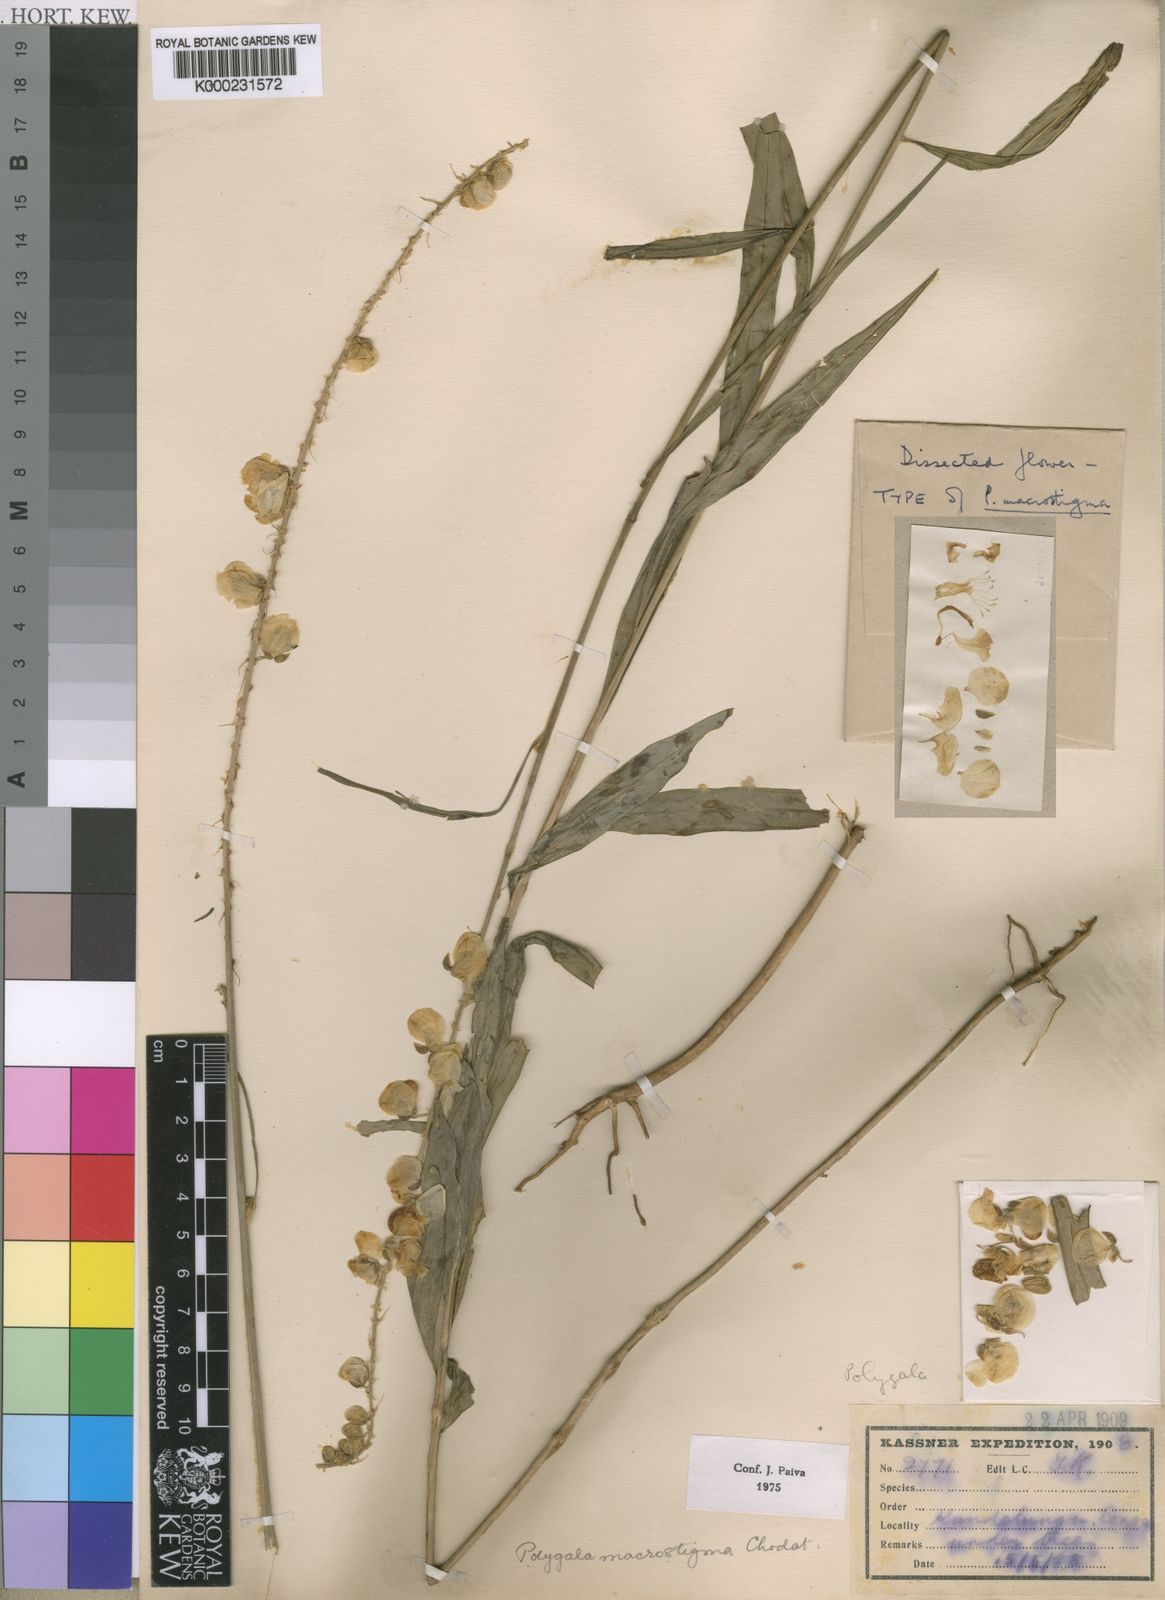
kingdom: Plantae
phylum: Tracheophyta
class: Magnoliopsida
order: Fabales
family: Polygalaceae
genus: Polygala
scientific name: Polygala macrostigma
